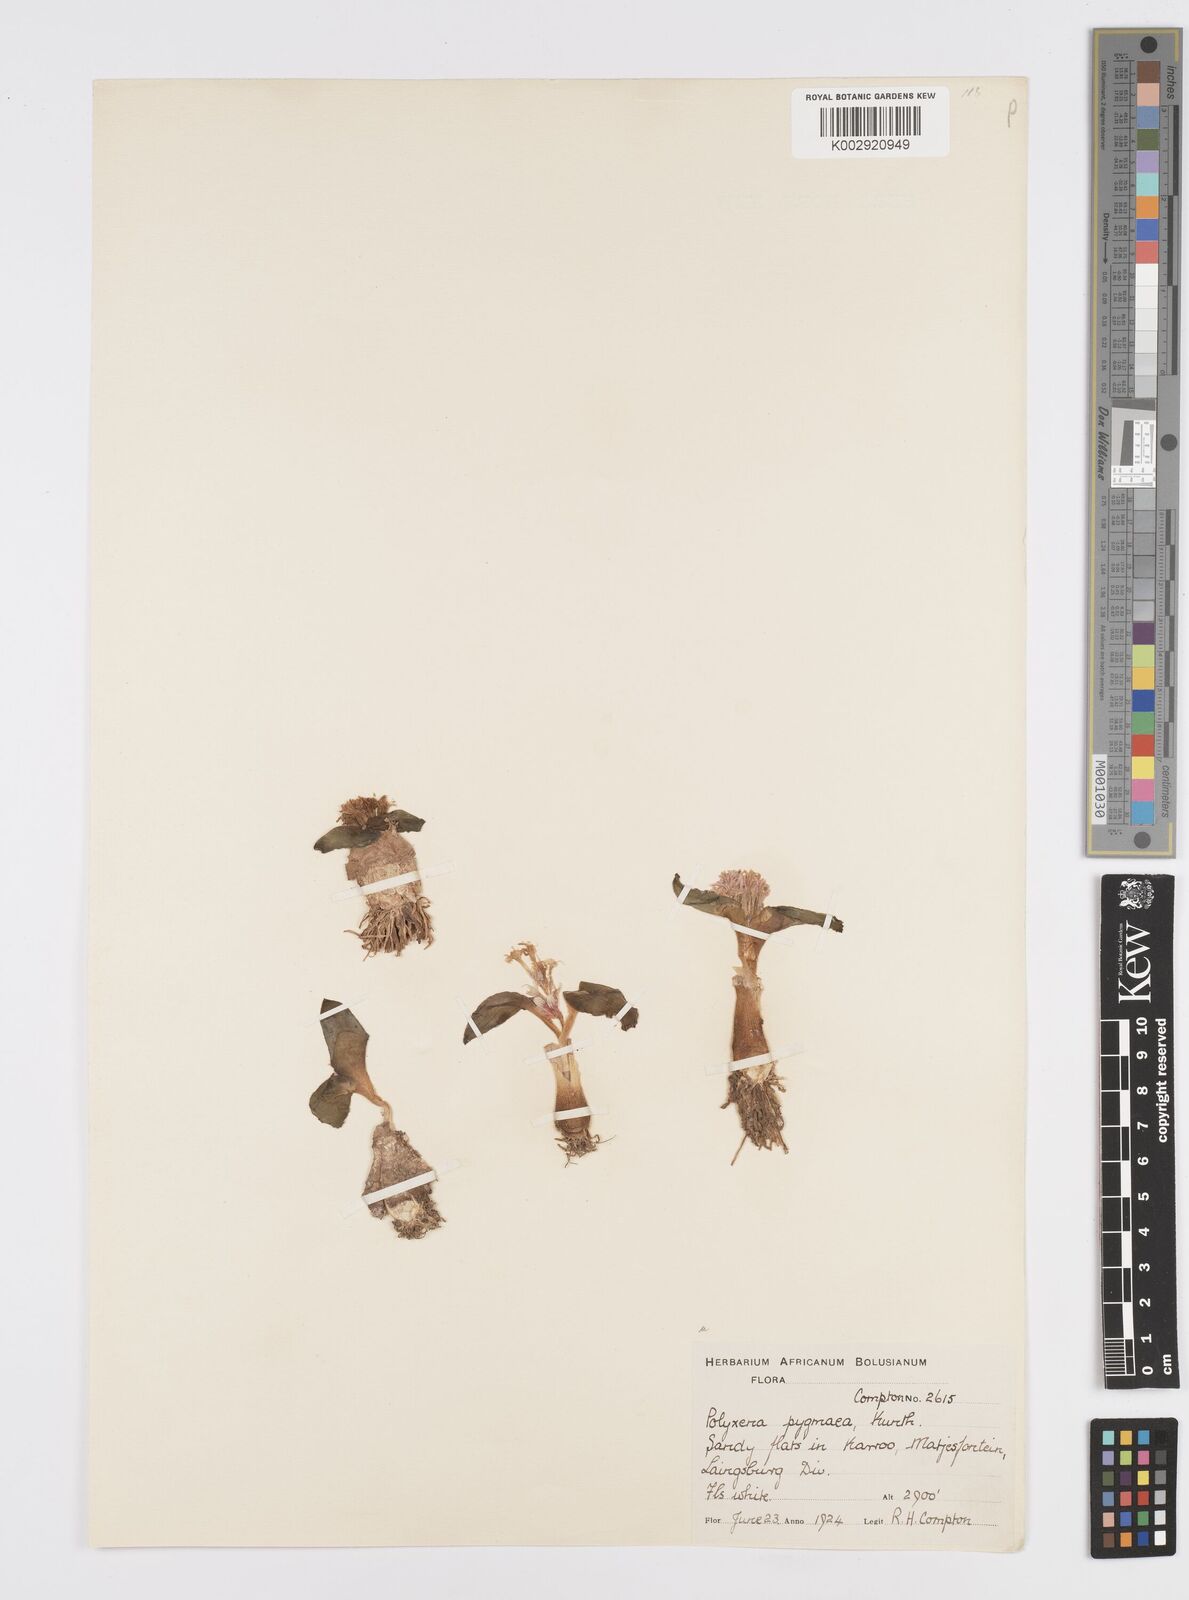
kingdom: Plantae
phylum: Tracheophyta
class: Liliopsida
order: Asparagales
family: Asparagaceae
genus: Lachenalia
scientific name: Lachenalia ensifolia
